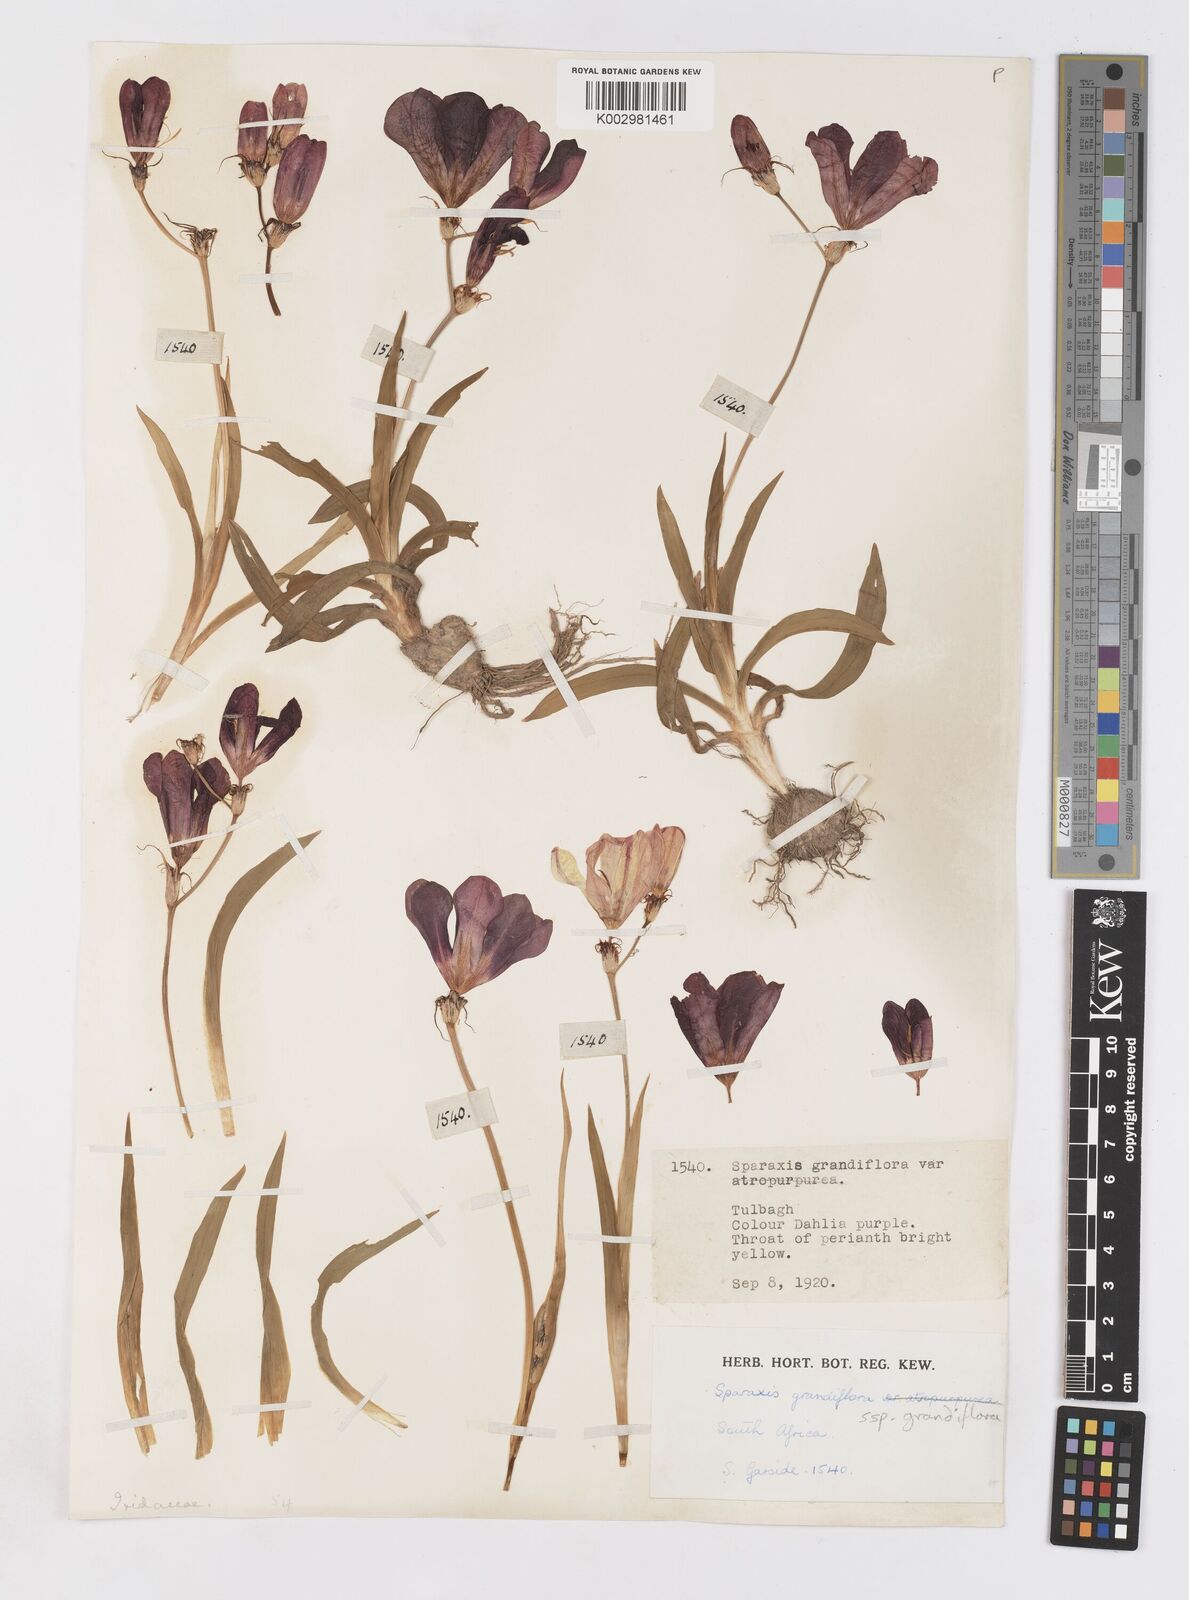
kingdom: Plantae
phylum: Tracheophyta
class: Liliopsida
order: Asparagales
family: Iridaceae
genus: Sparaxis
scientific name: Sparaxis grandiflora
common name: Plain harlequin-flower
